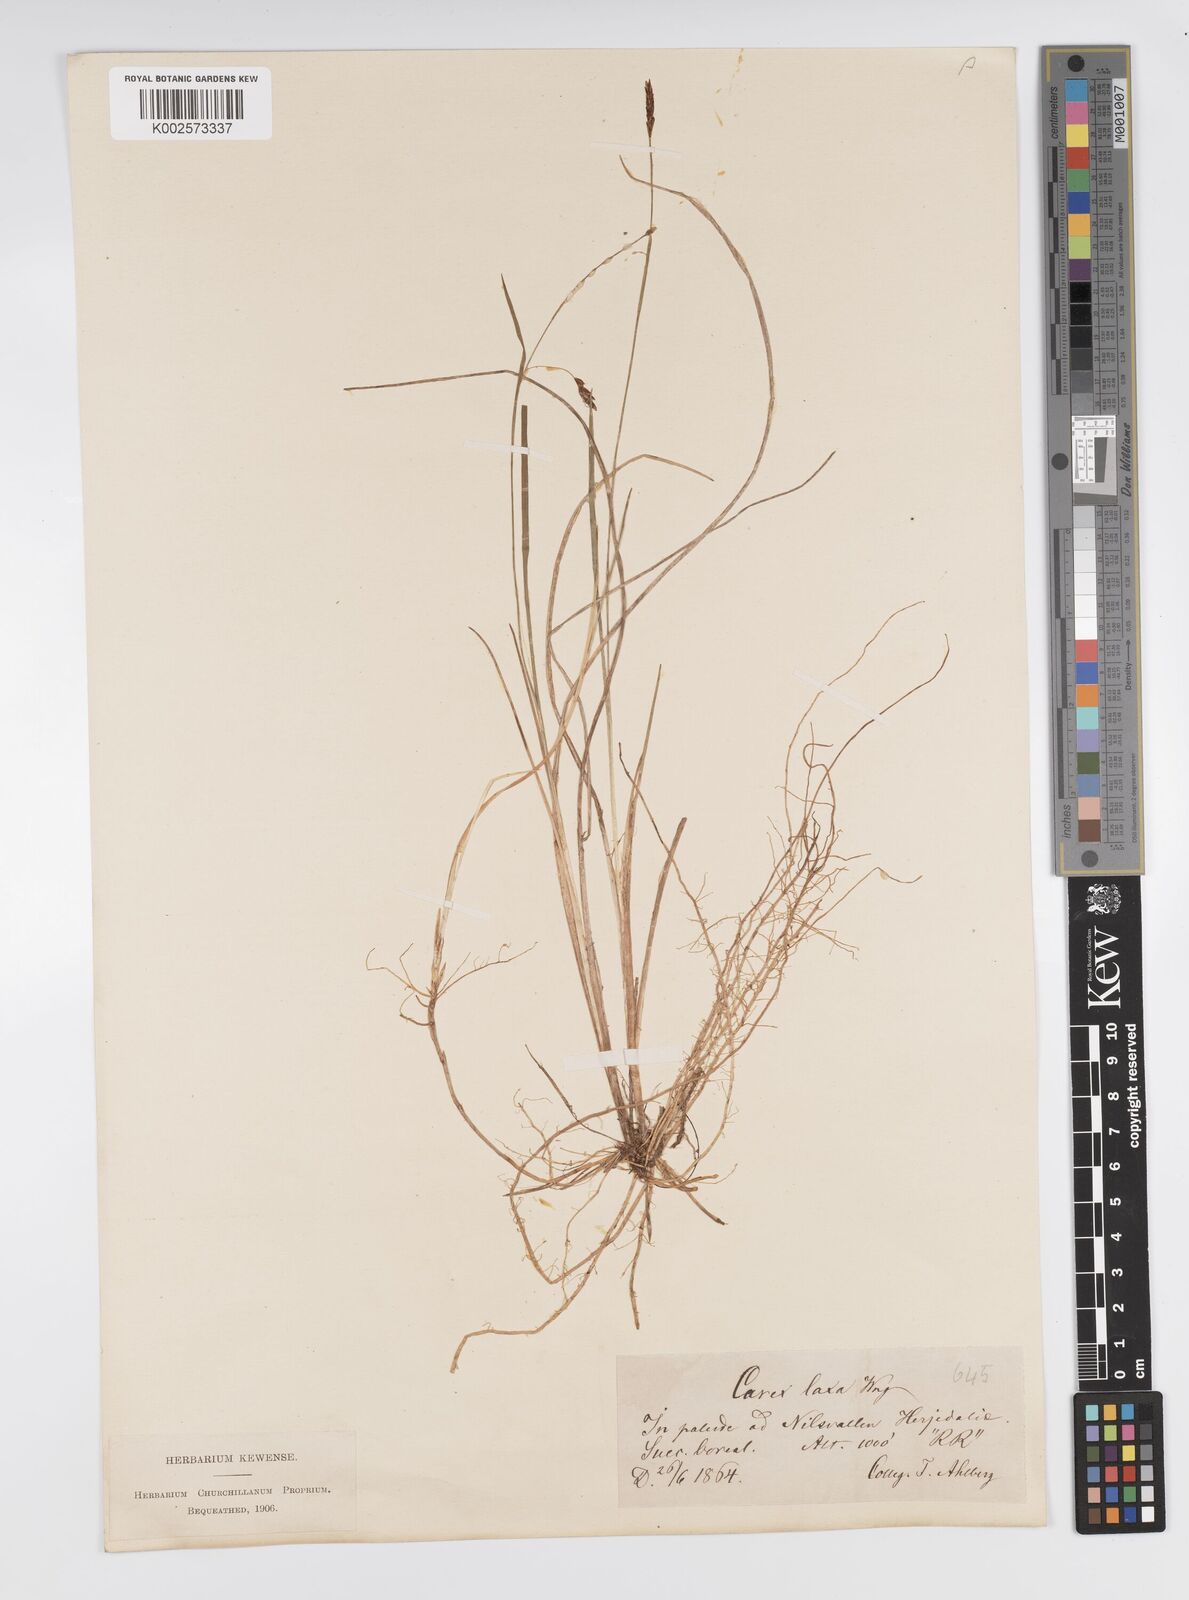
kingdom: Plantae
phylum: Tracheophyta
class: Liliopsida
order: Poales
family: Cyperaceae
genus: Carex
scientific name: Carex laxa
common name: Weak sedge
